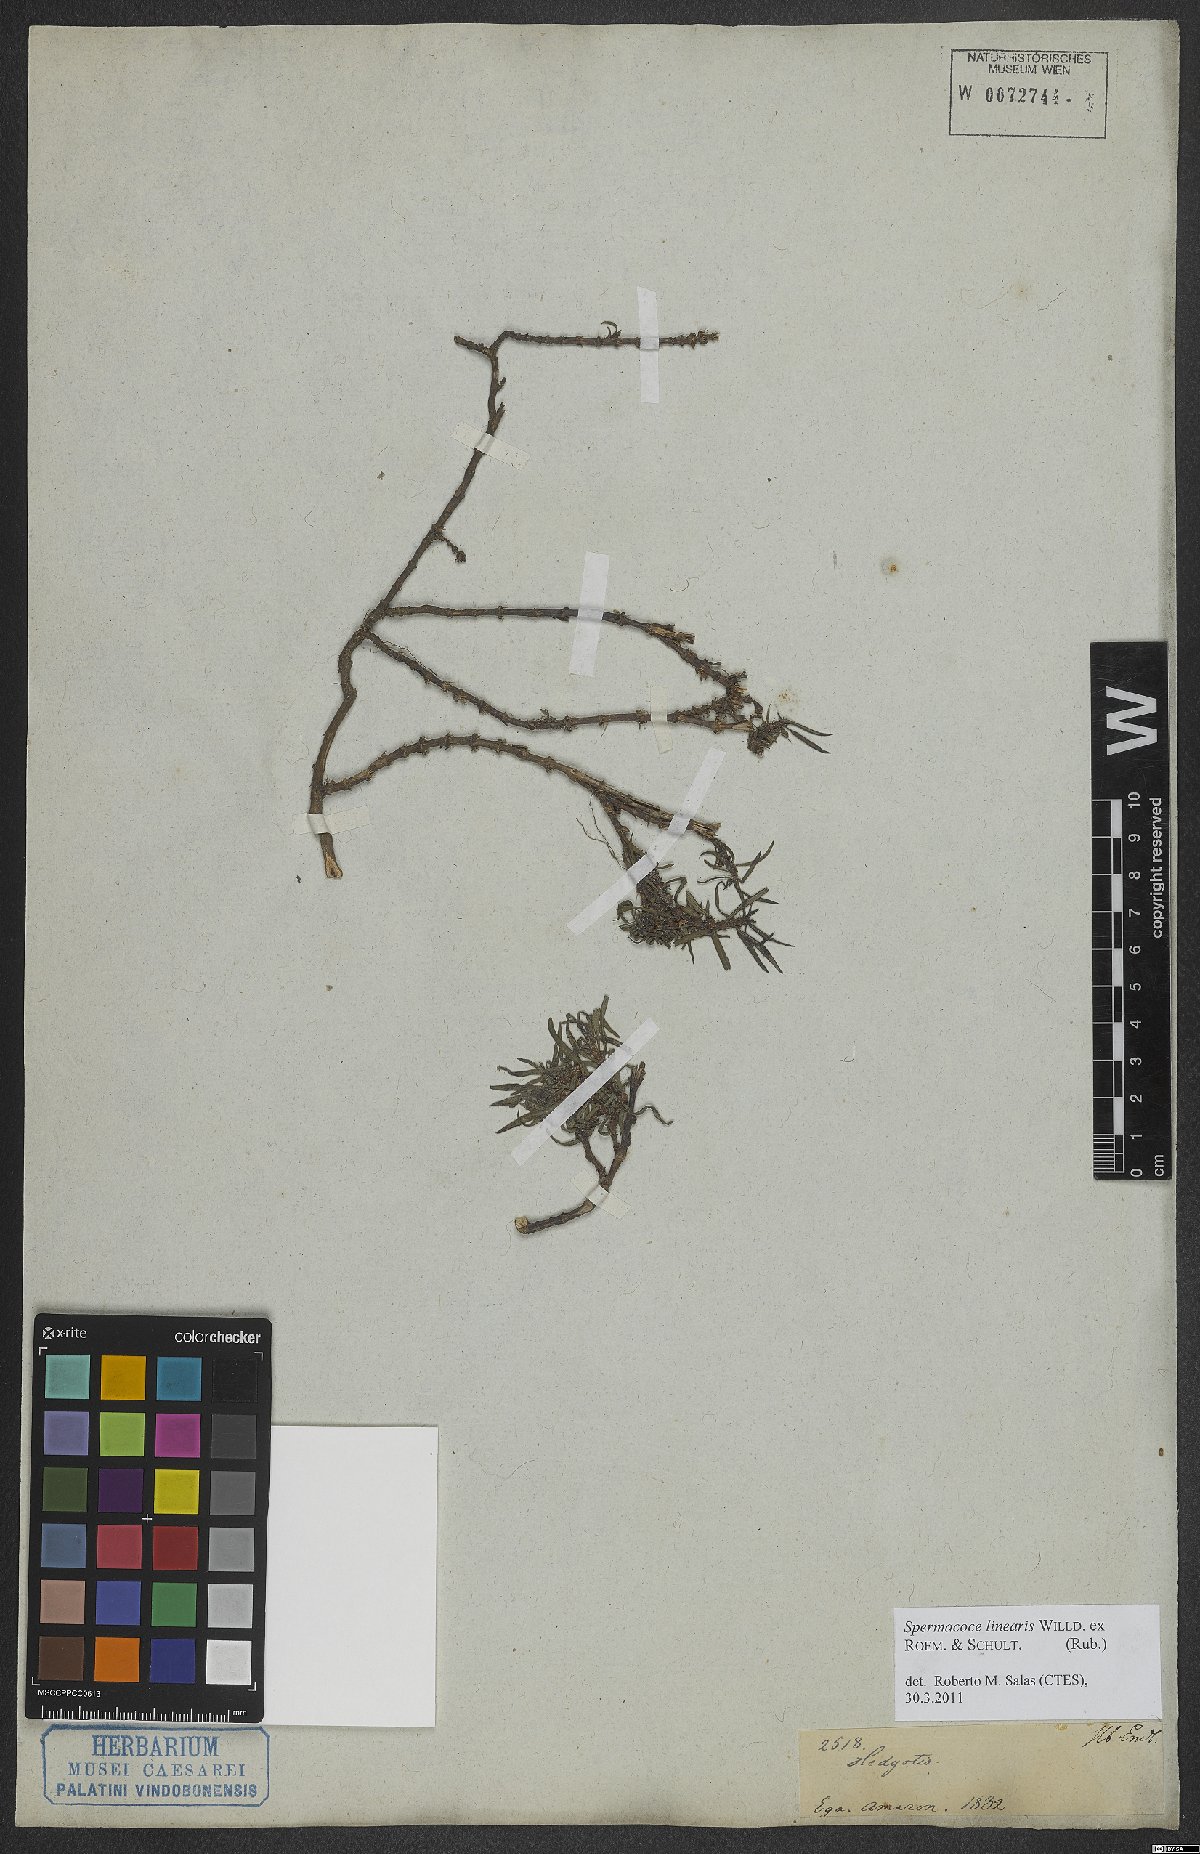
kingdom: Plantae
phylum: Tracheophyta
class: Magnoliopsida
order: Gentianales
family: Rubiaceae
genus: Spermacoce
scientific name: Spermacoce hyssopifolia
